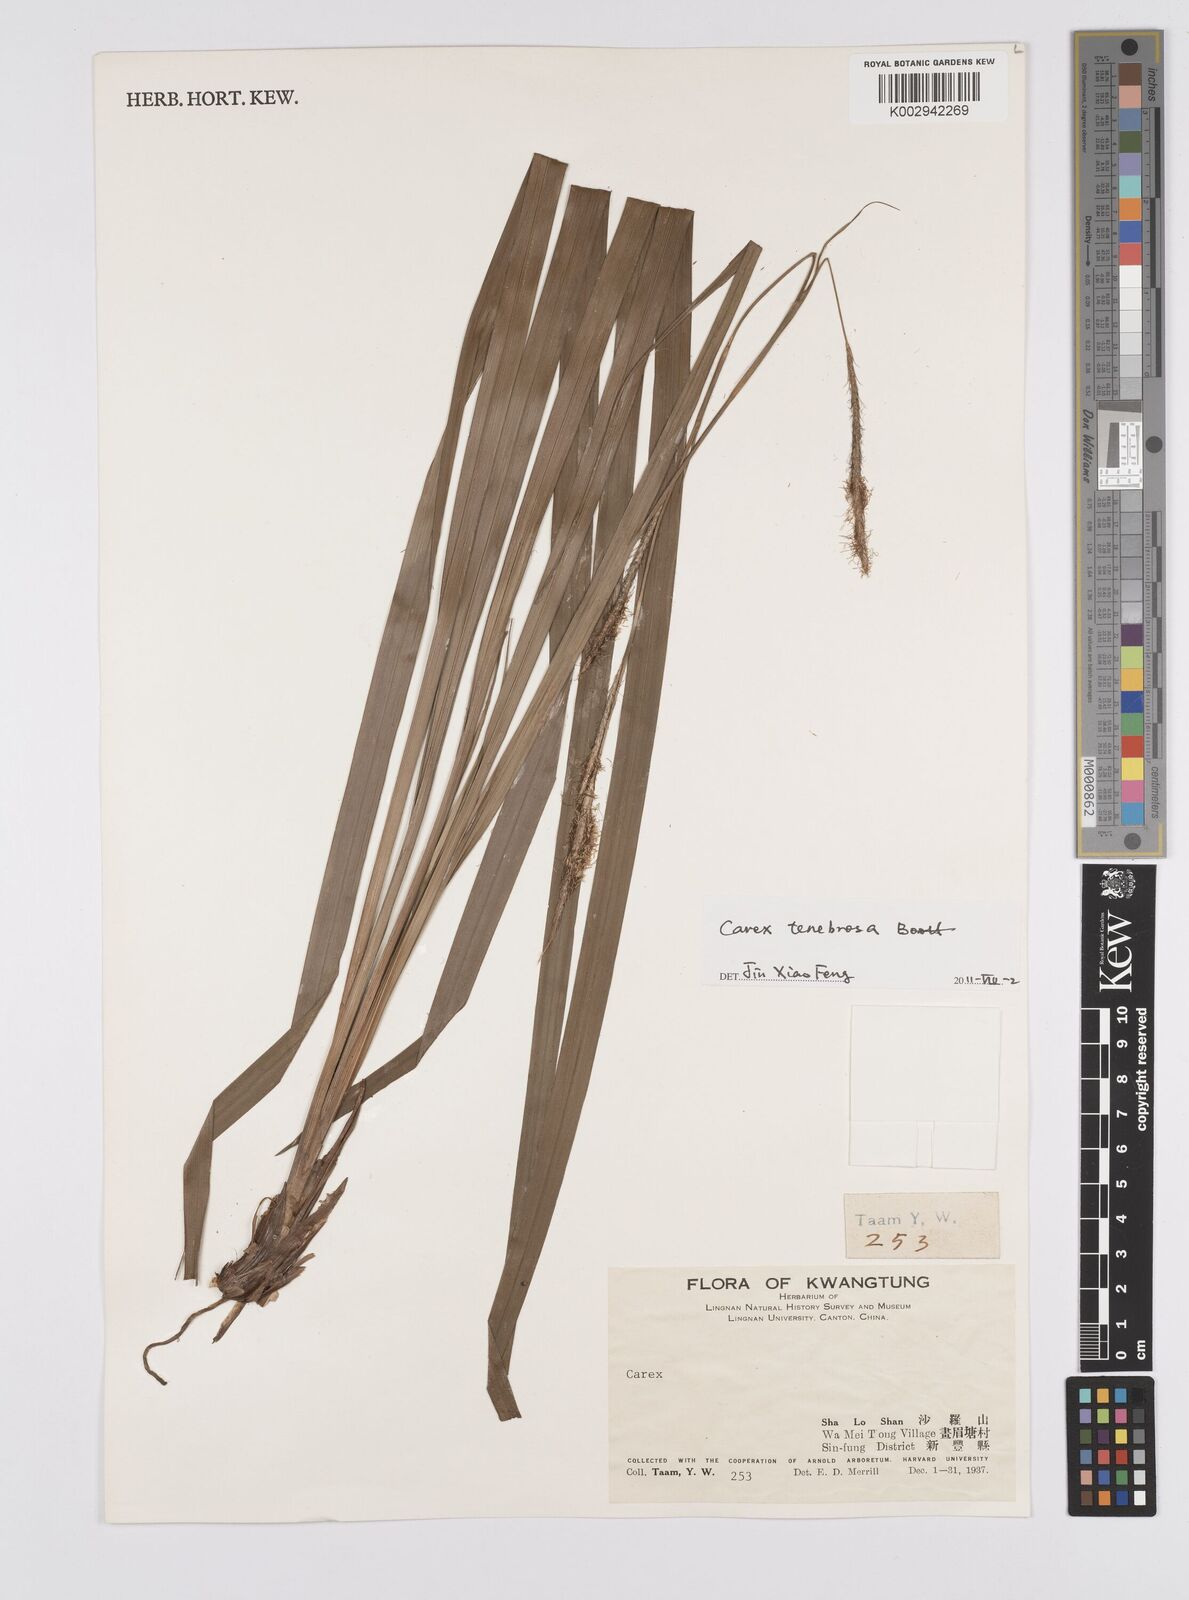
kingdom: Plantae
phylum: Tracheophyta
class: Liliopsida
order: Poales
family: Cyperaceae
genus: Carex
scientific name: Carex tenebrosa
